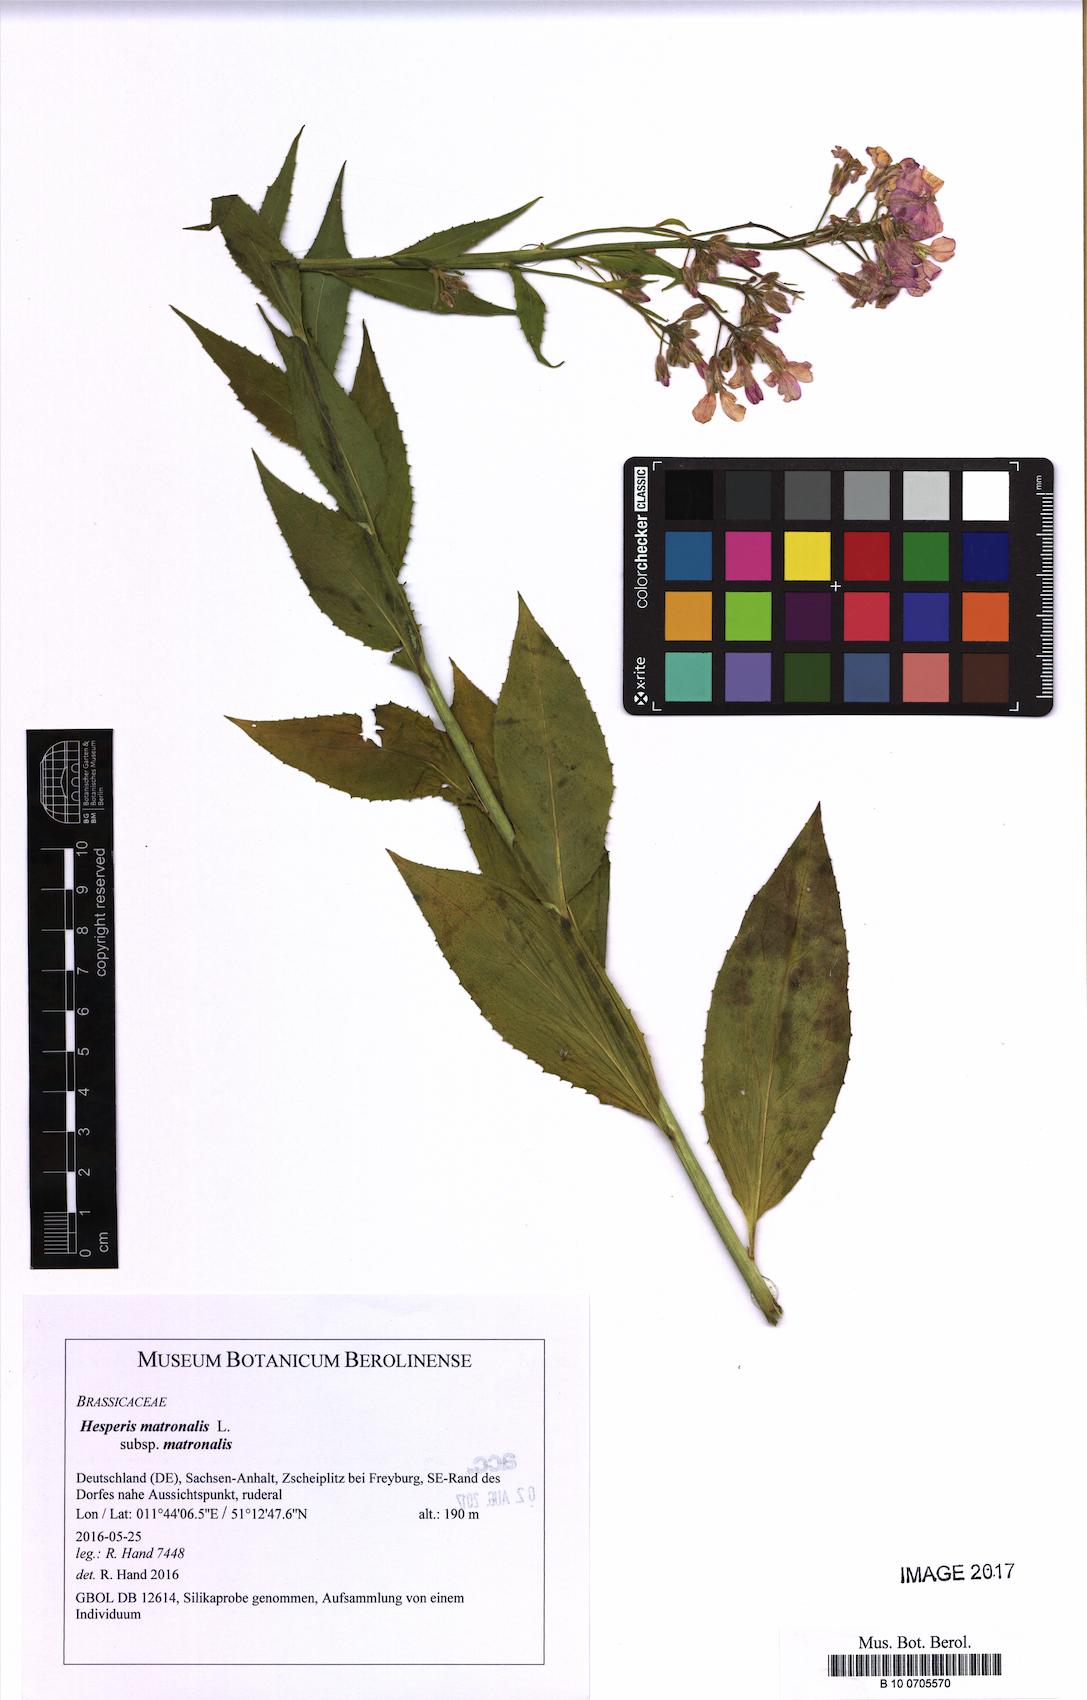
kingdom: Plantae
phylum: Tracheophyta
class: Magnoliopsida
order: Brassicales
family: Brassicaceae
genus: Hesperis
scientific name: Hesperis matronalis
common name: Dame's-violet
